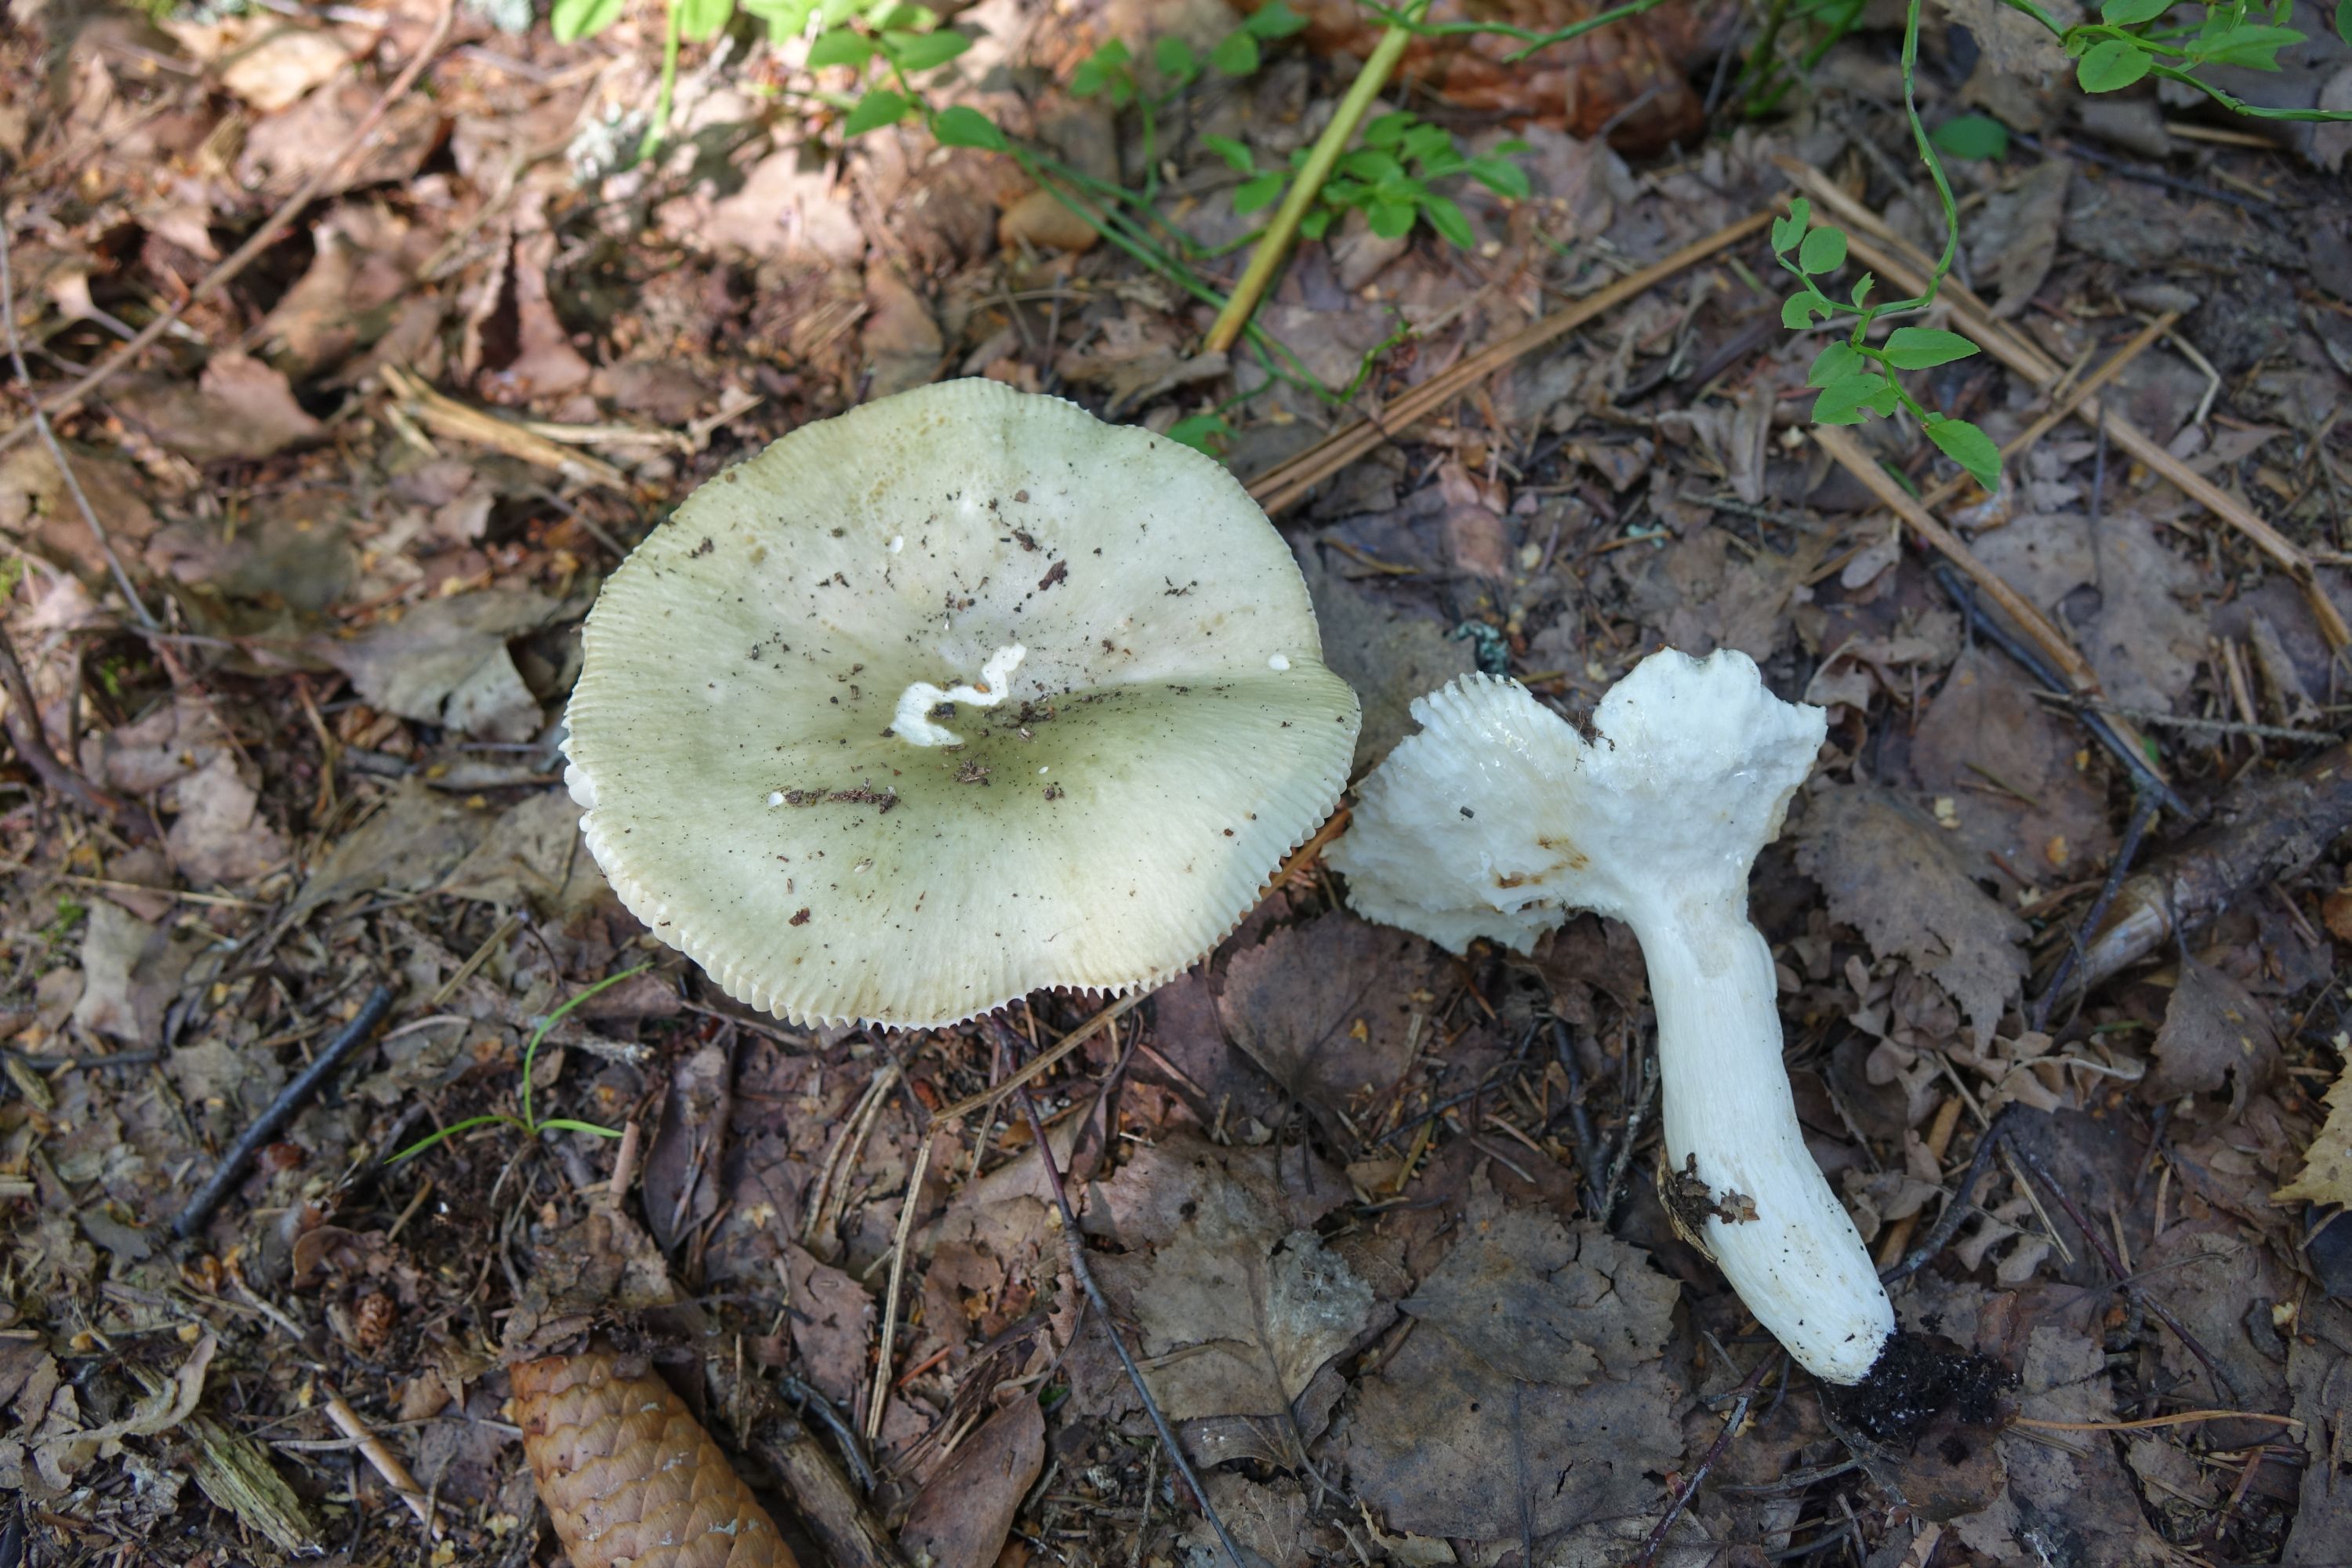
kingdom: Fungi
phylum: Basidiomycota
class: Agaricomycetes
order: Russulales
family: Russulaceae
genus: Russula
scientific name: Russula aeruginea
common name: Green brittlegill
